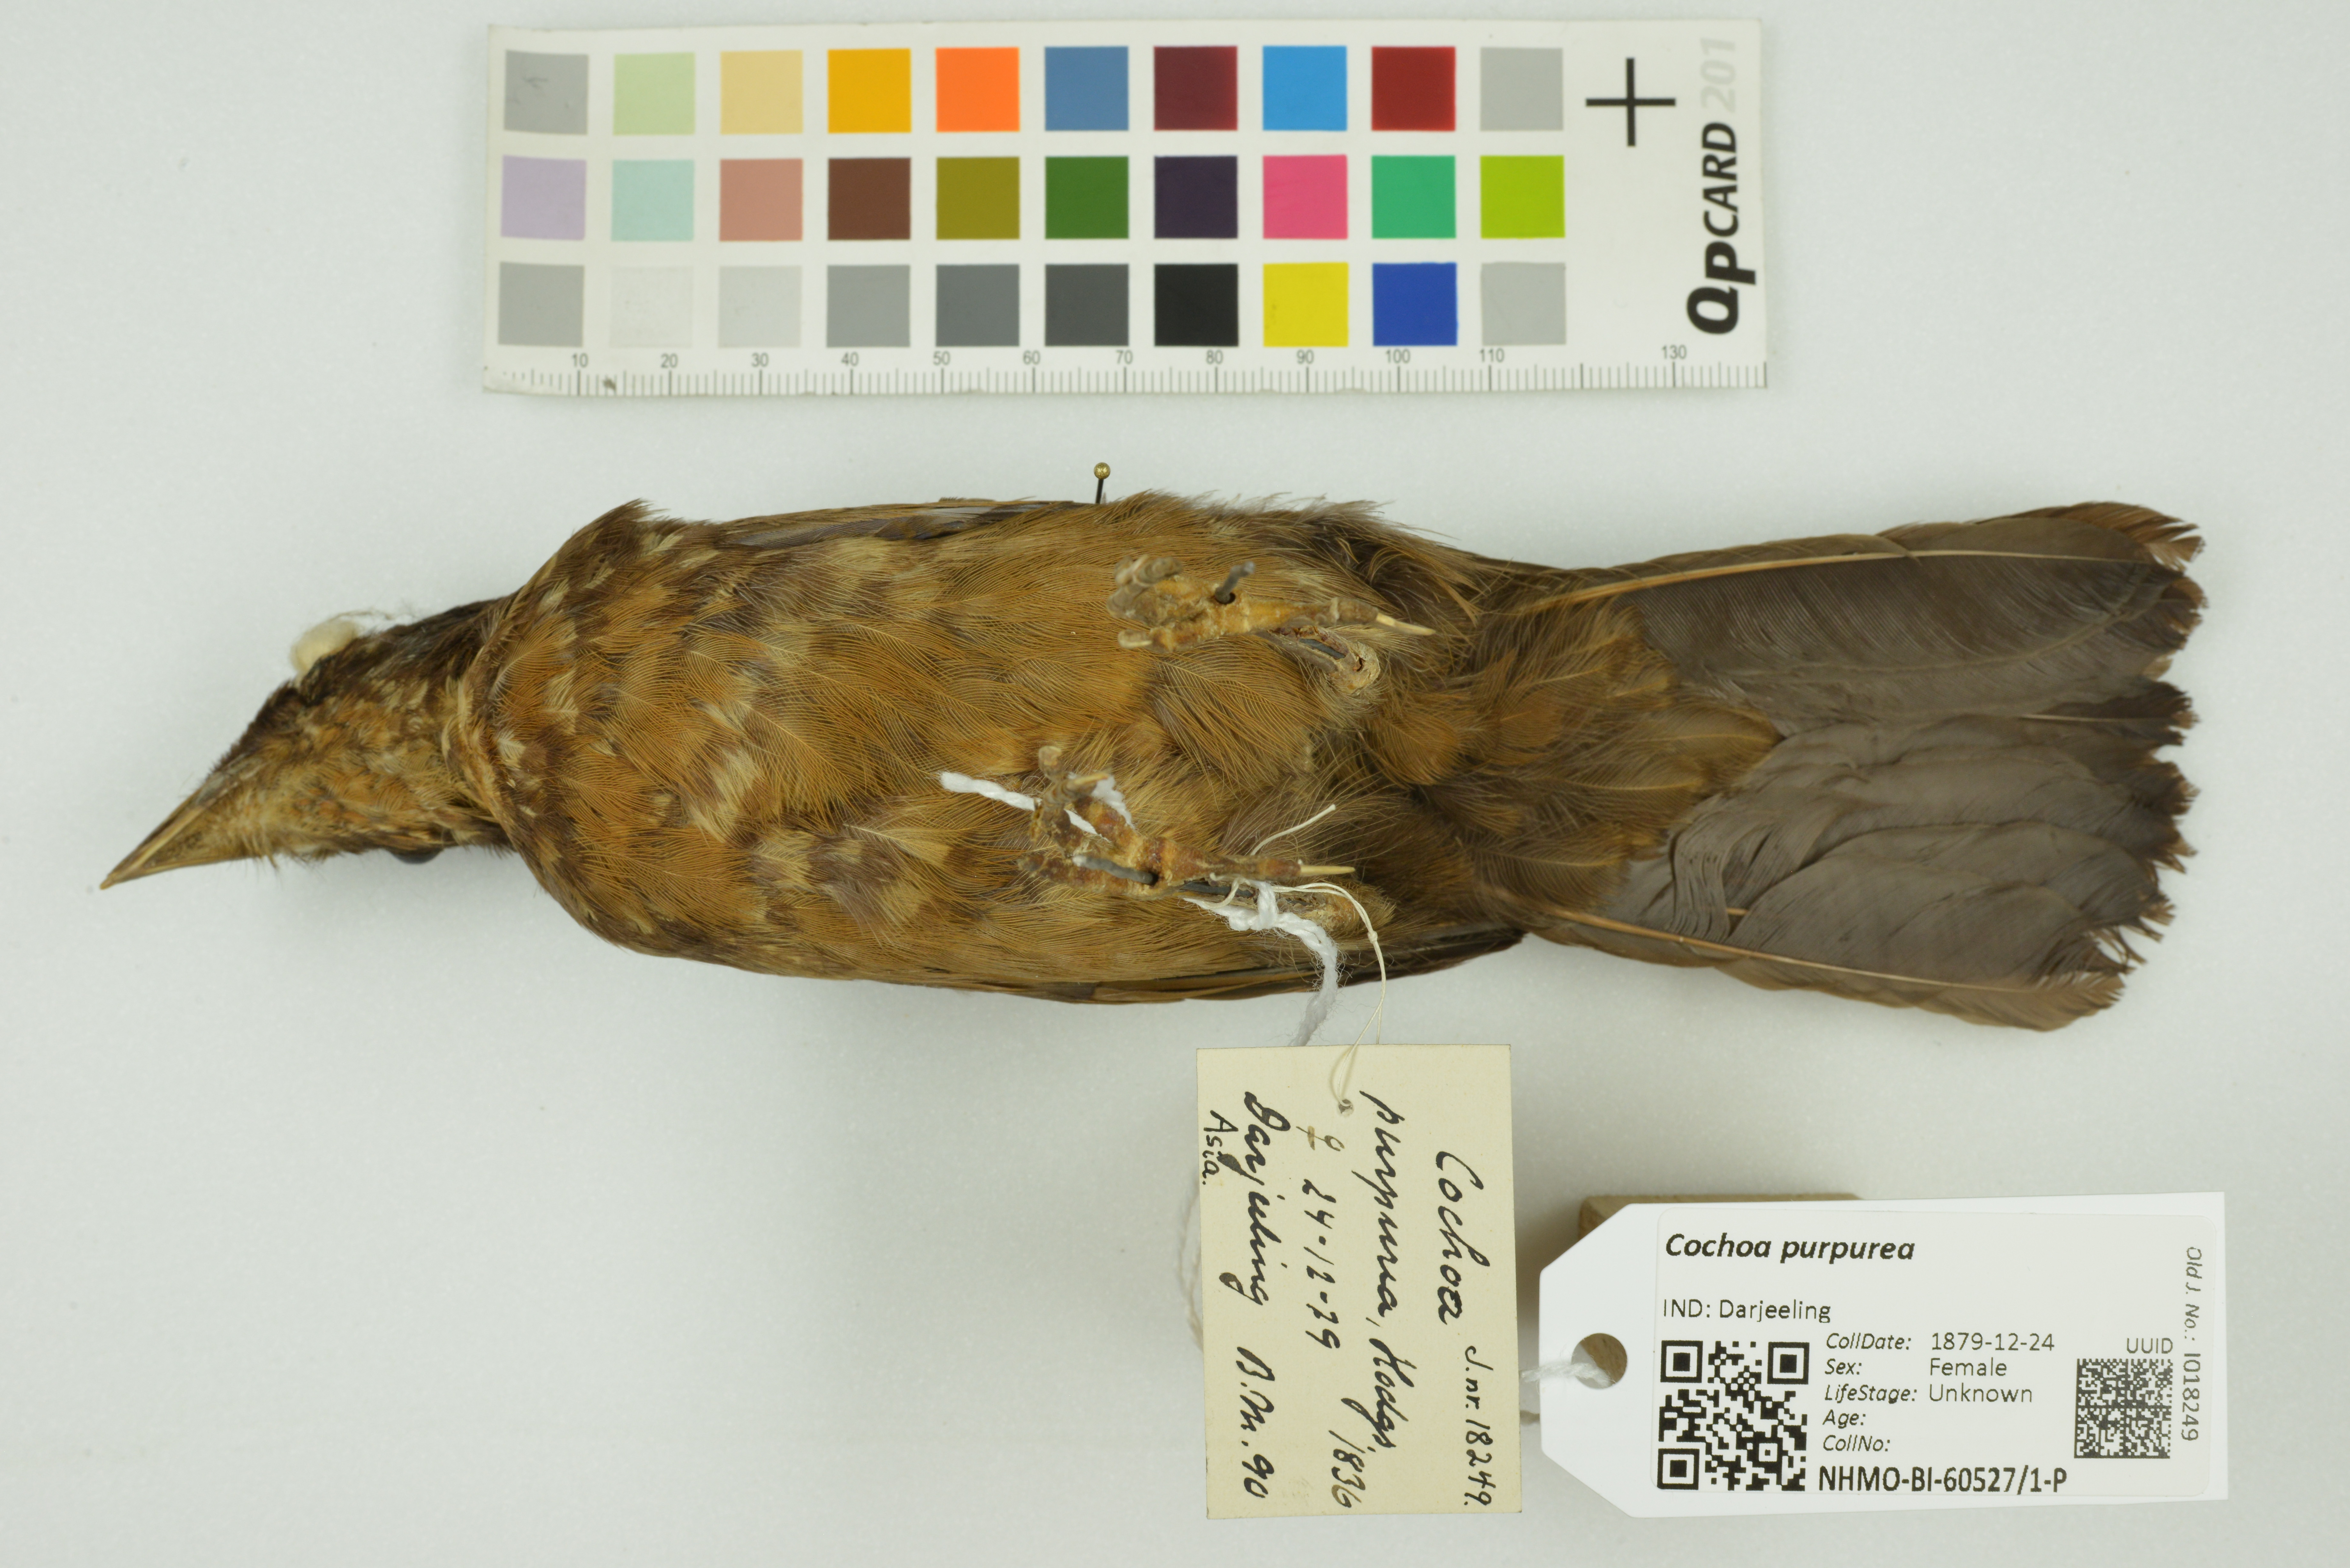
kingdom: Animalia
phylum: Chordata
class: Aves
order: Passeriformes
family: Turdidae
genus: Cochoa
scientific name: Cochoa purpurea
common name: Purple cochoa
